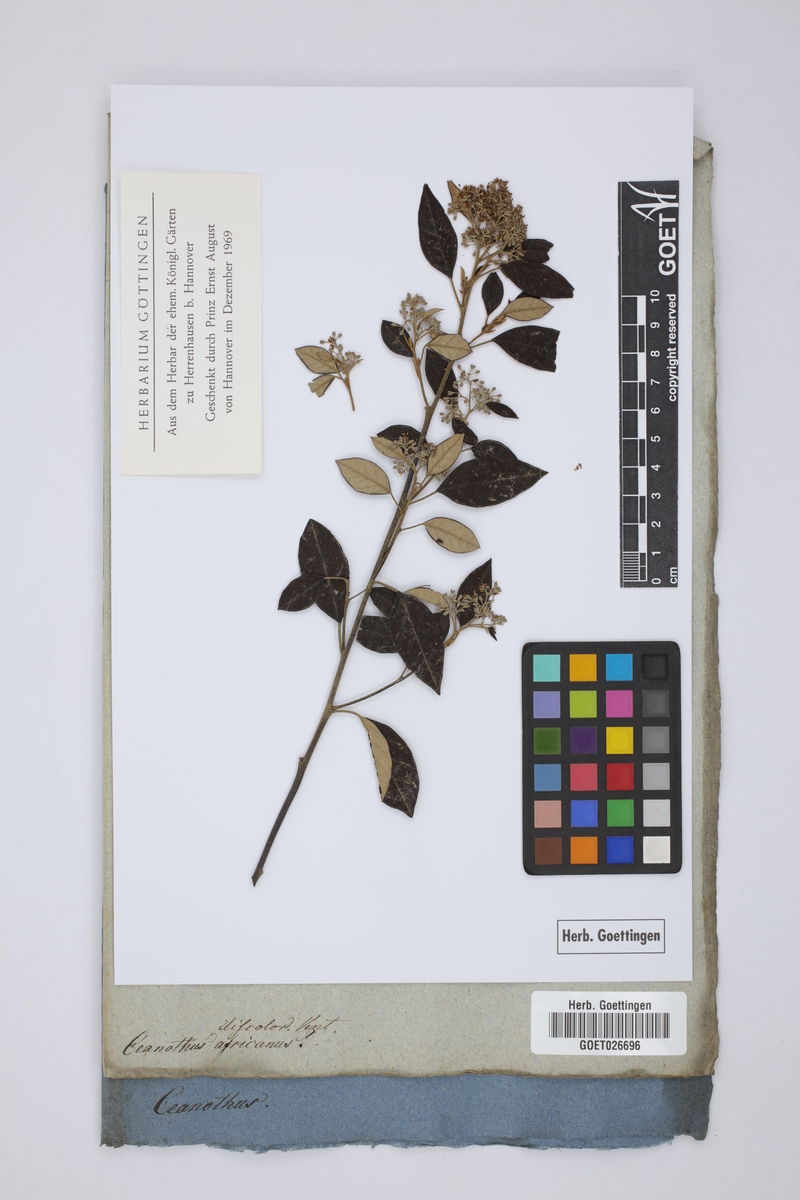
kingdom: Plantae
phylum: Tracheophyta
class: Magnoliopsida
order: Rosales
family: Rhamnaceae
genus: Pomaderris
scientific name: Pomaderris discolor
